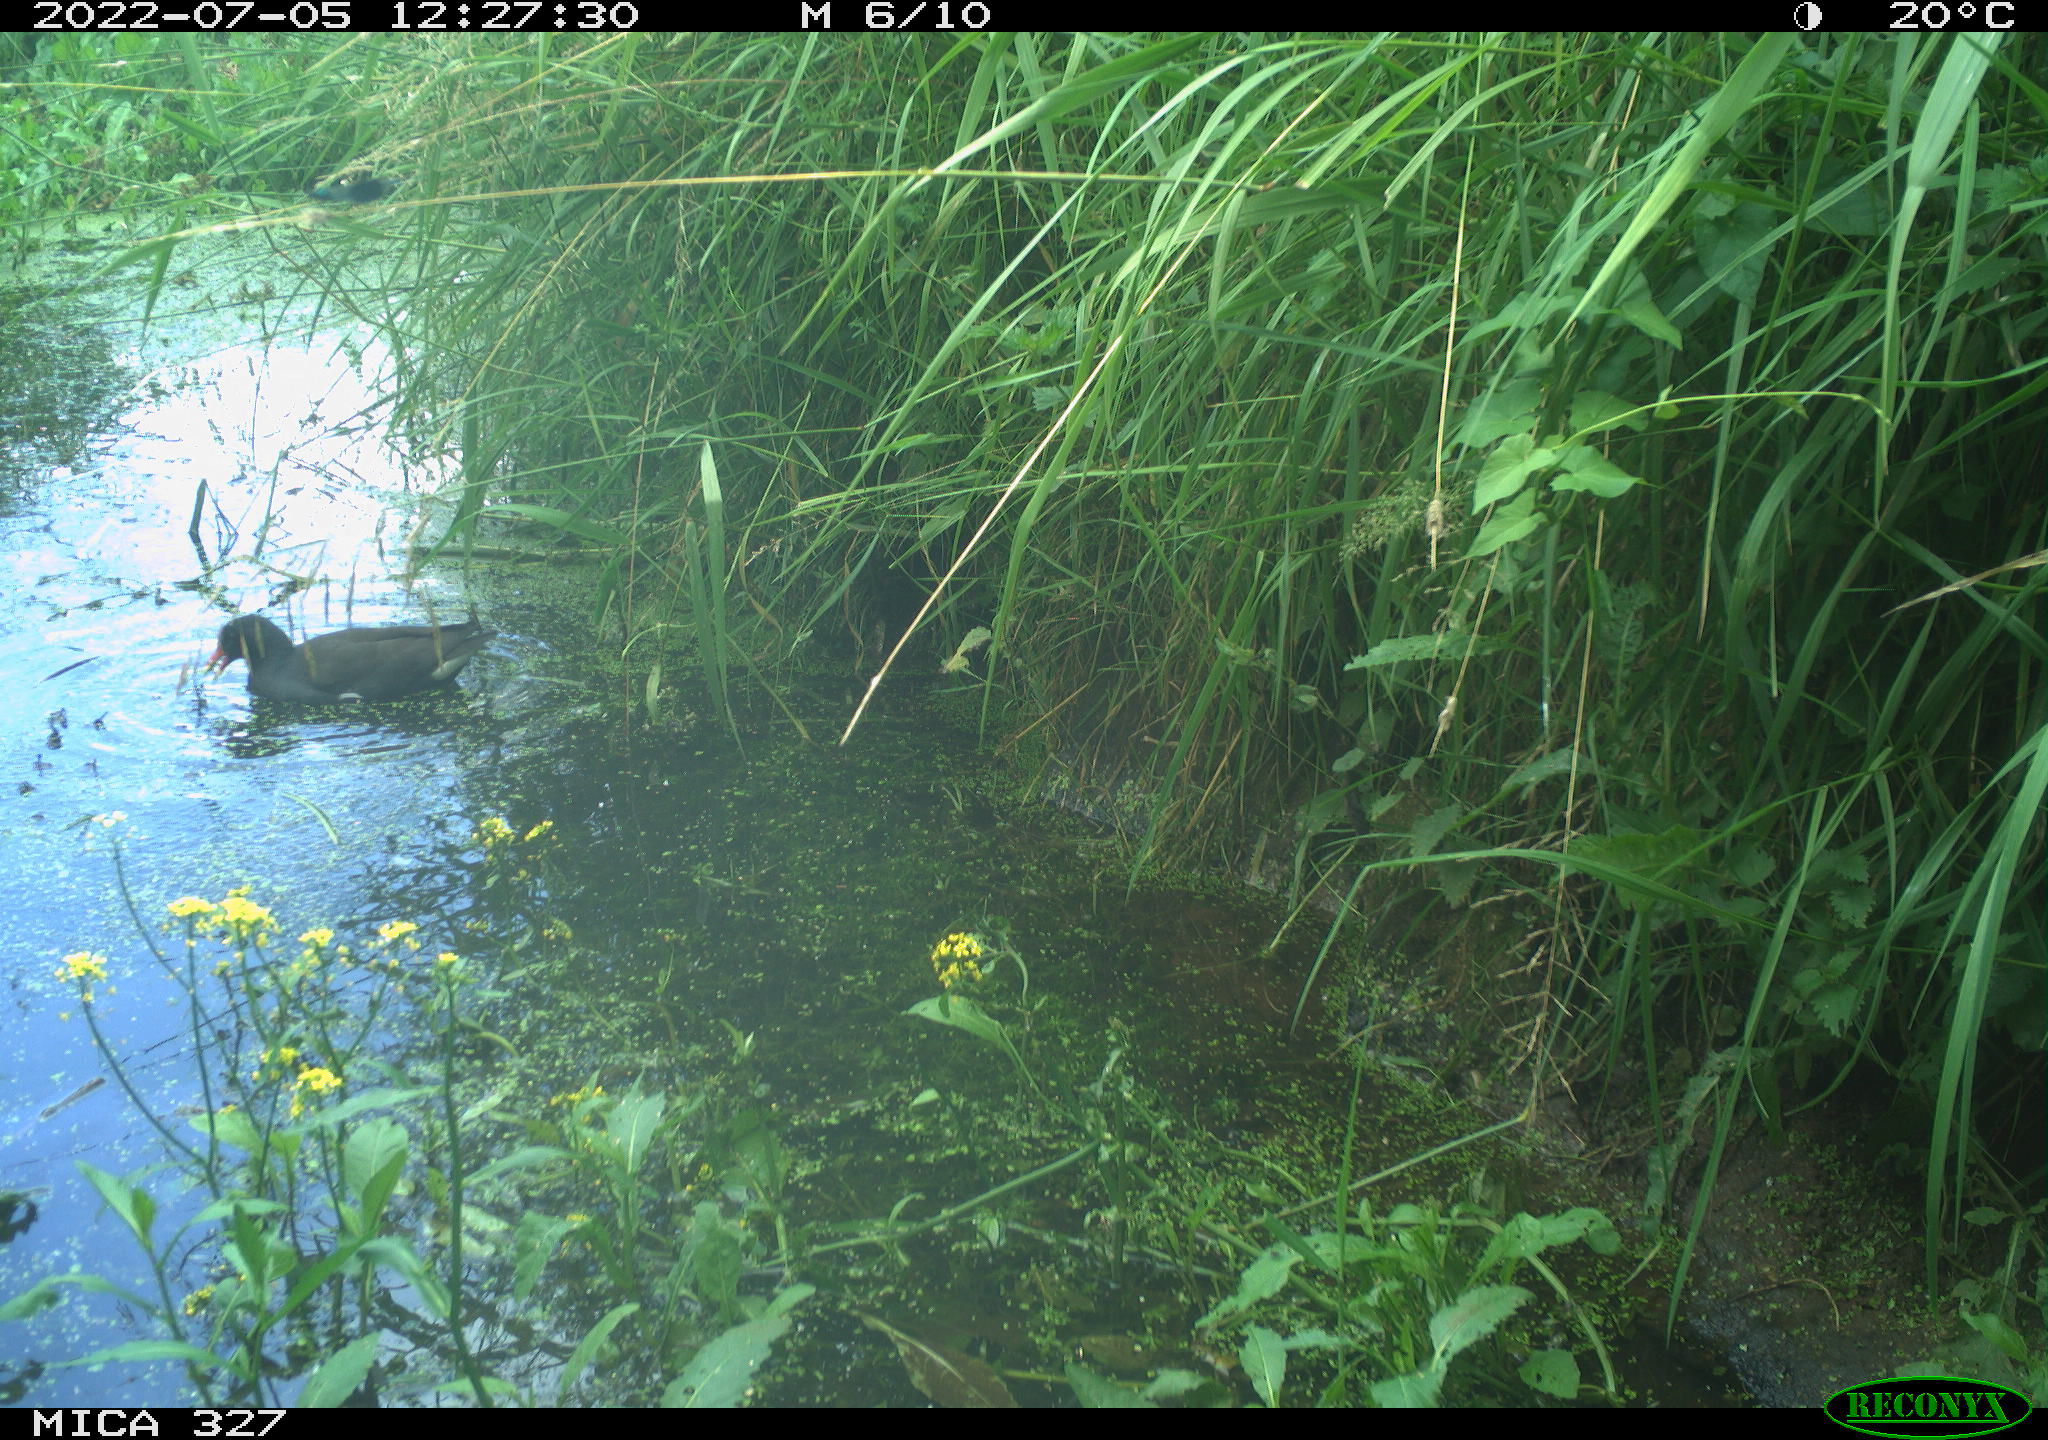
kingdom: Animalia
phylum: Chordata
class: Aves
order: Gruiformes
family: Rallidae
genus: Gallinula
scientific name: Gallinula chloropus
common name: Common moorhen
